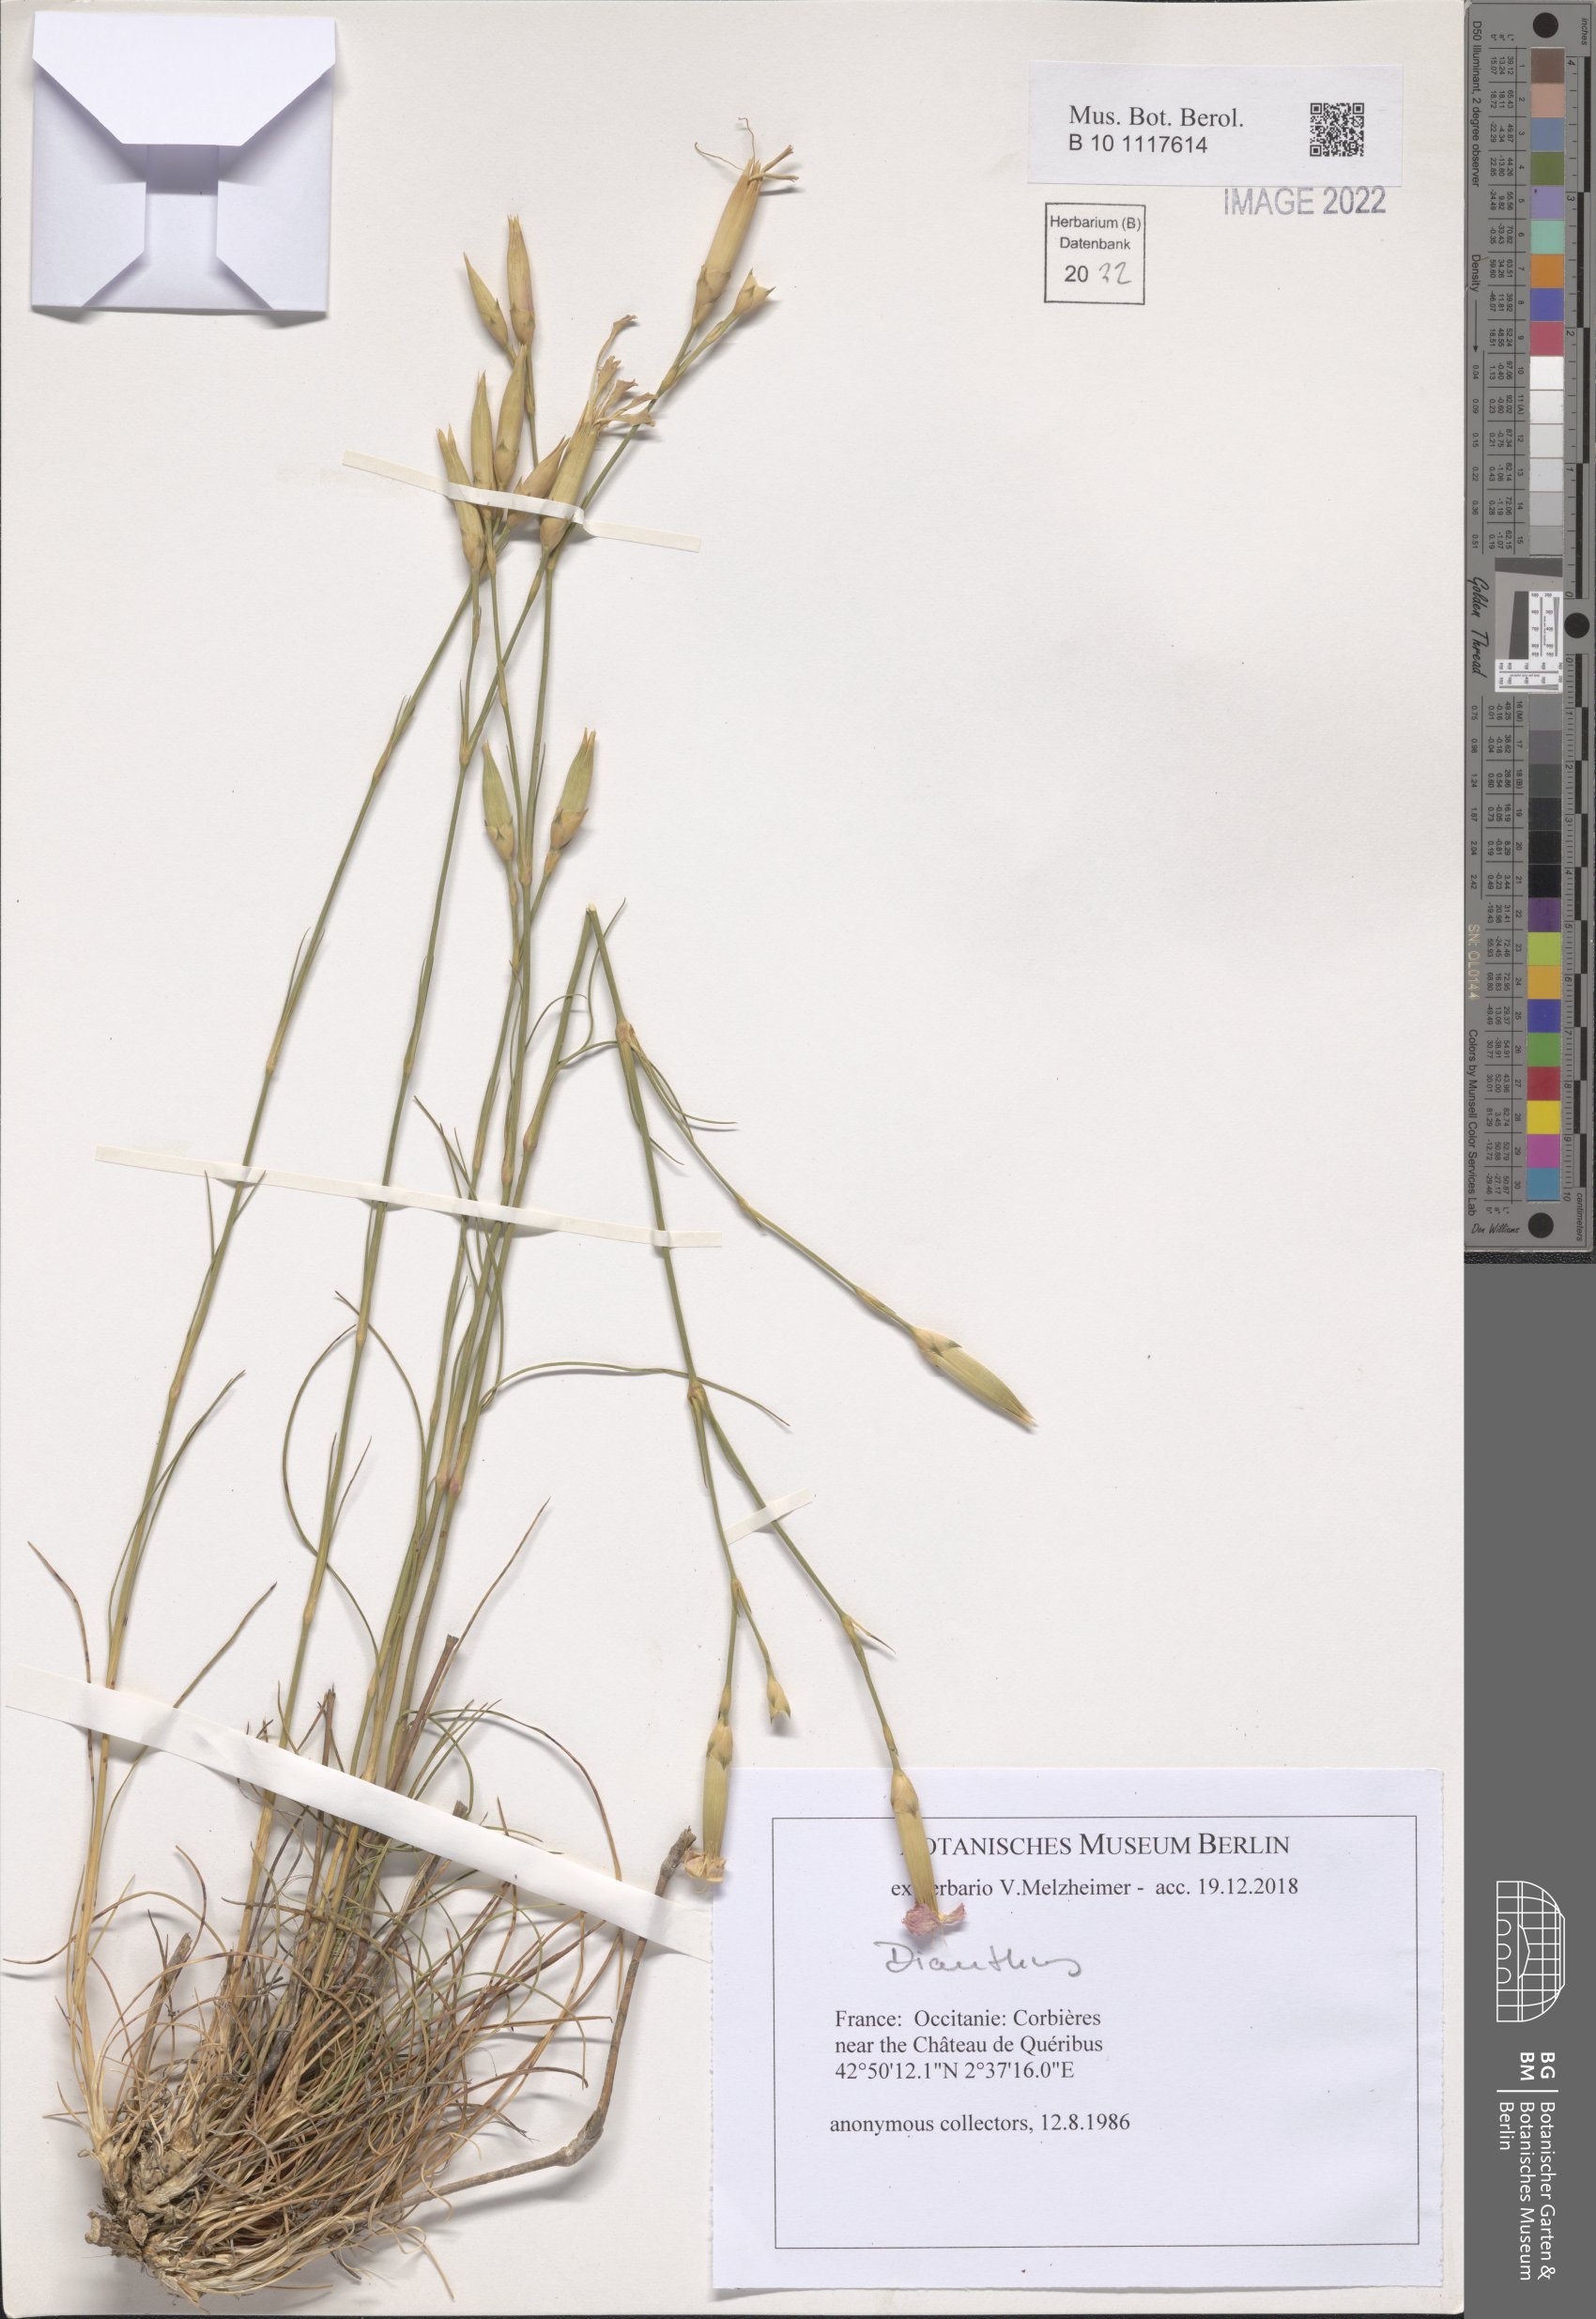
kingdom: Plantae
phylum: Tracheophyta
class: Magnoliopsida
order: Caryophyllales
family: Caryophyllaceae
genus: Dianthus
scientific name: Dianthus
